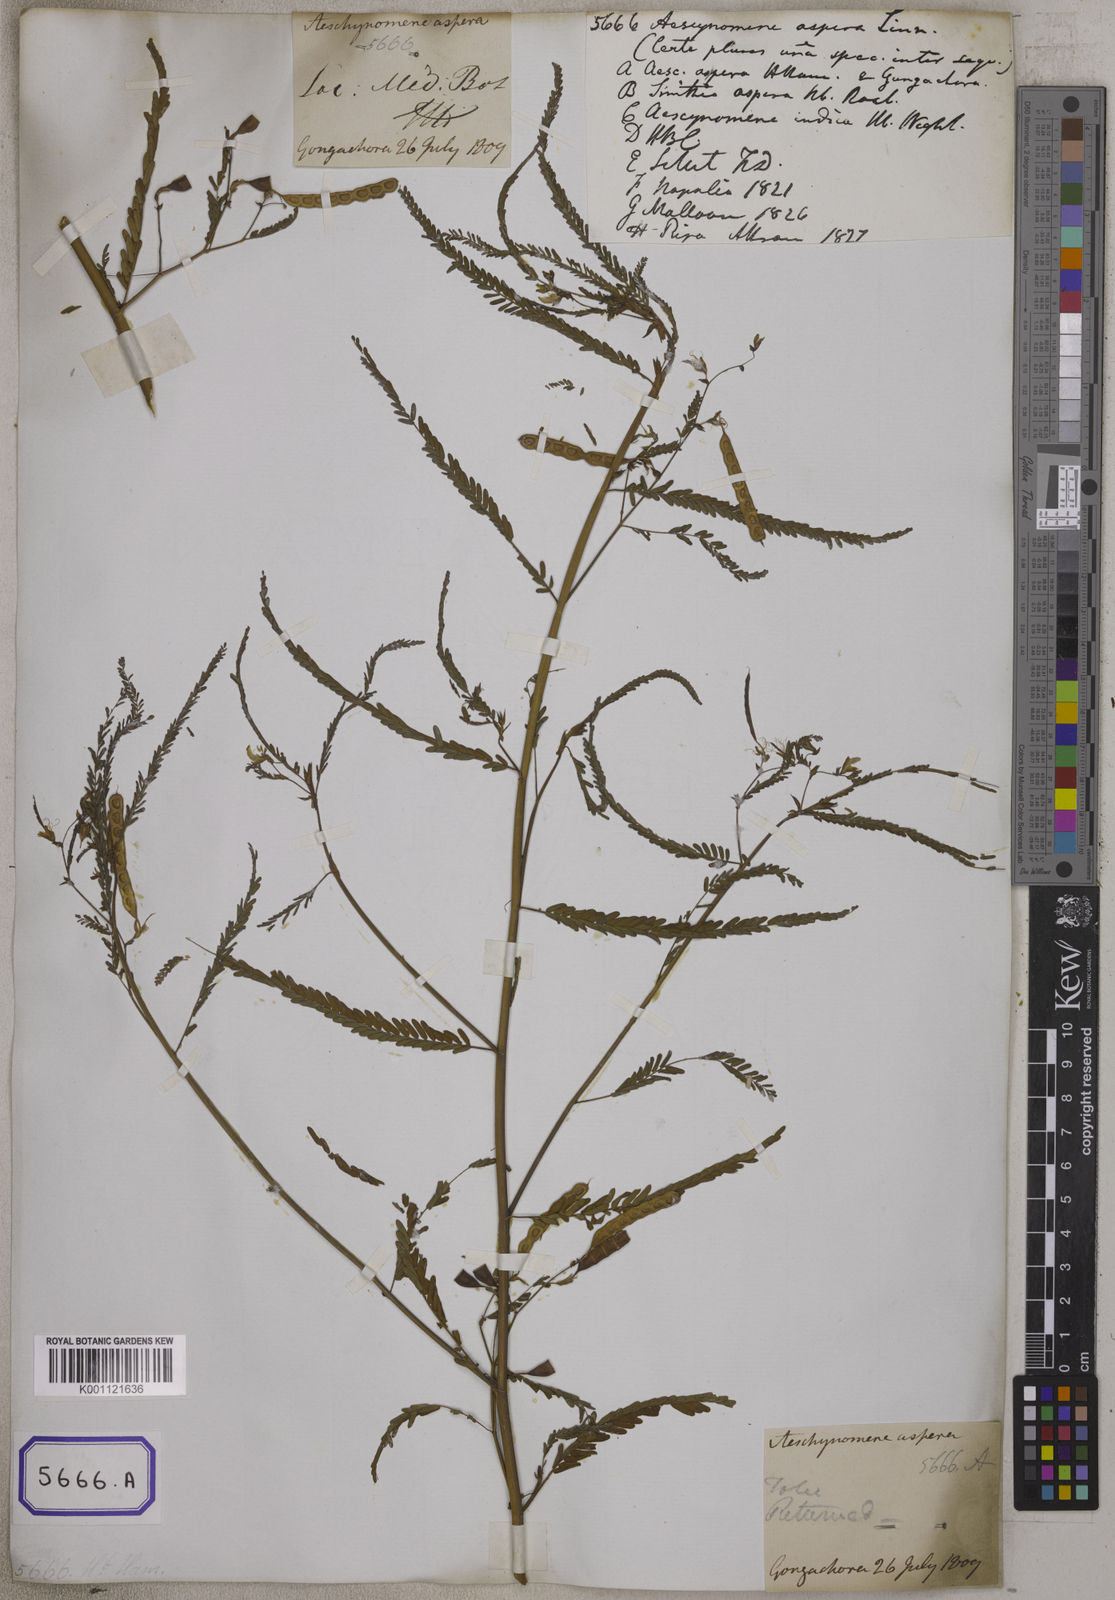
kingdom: Plantae
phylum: Tracheophyta
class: Magnoliopsida
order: Fabales
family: Fabaceae
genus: Aeschynomene
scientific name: Aeschynomene aspera
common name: Pith plant
